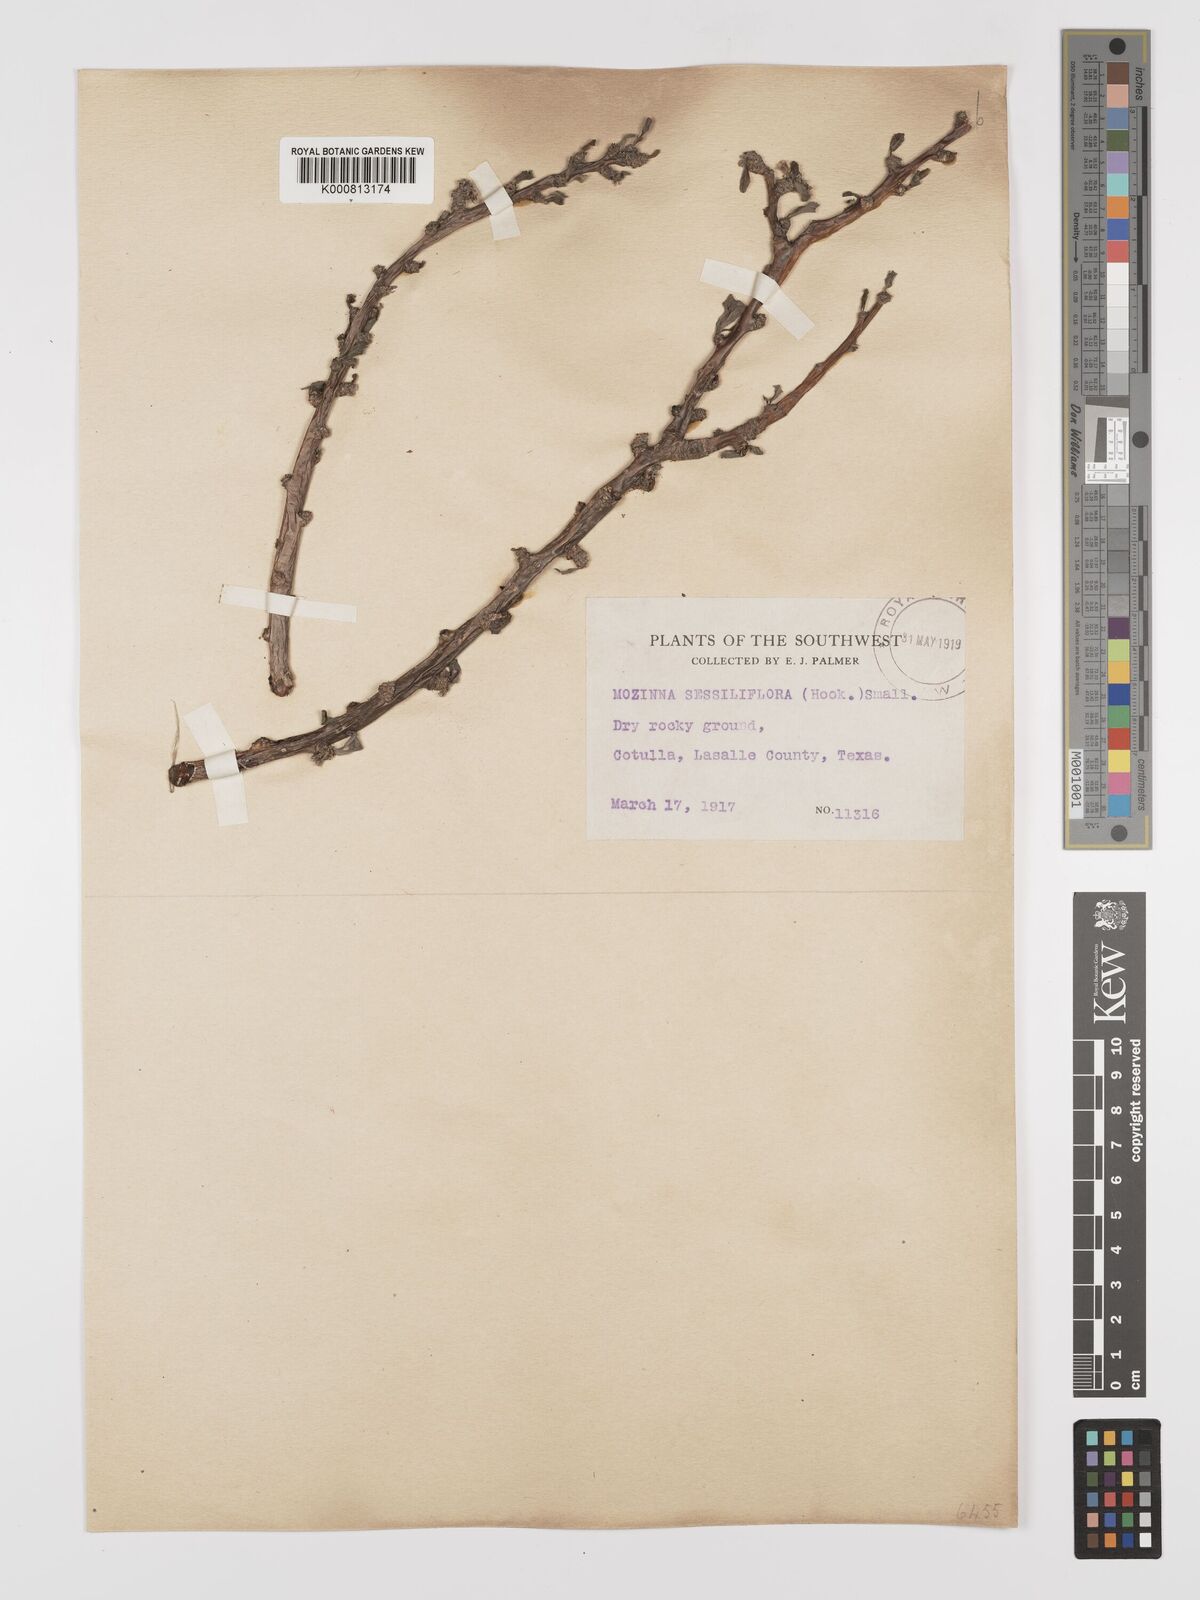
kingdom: Plantae
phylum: Tracheophyta
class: Magnoliopsida
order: Malpighiales
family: Euphorbiaceae
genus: Jatropha
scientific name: Jatropha
